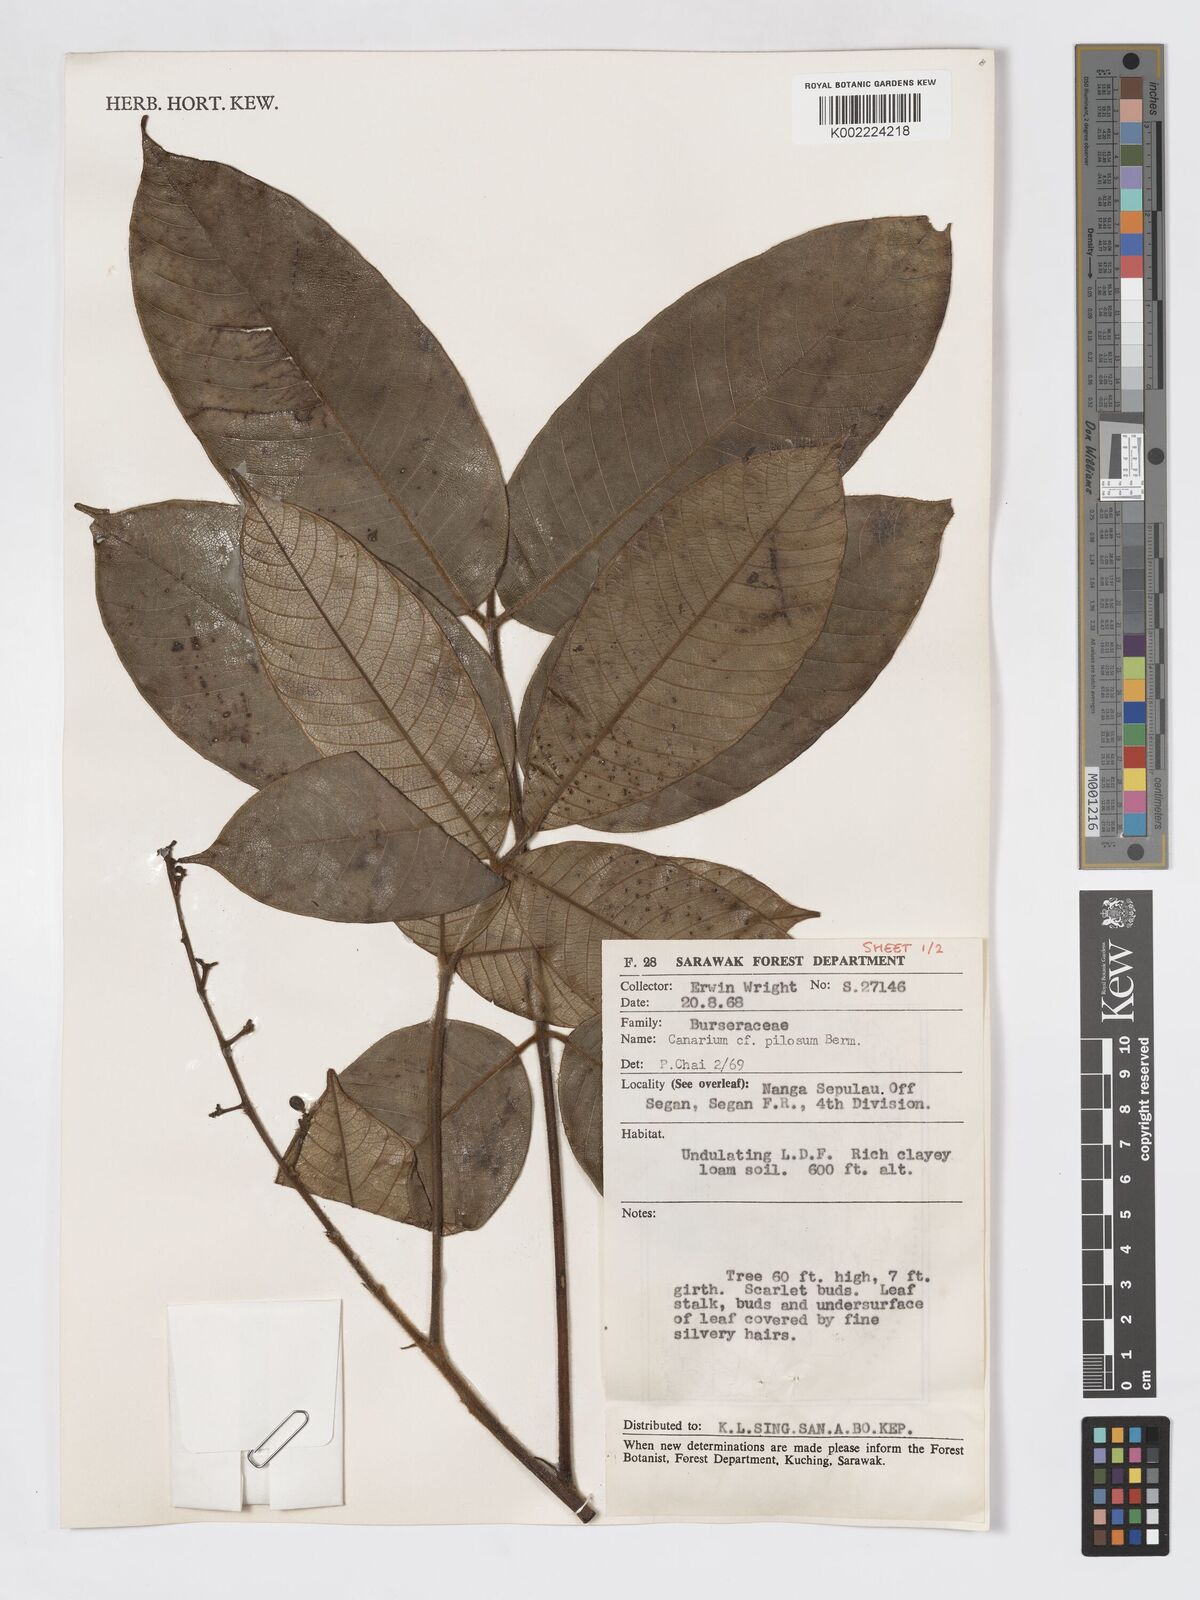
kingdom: Plantae
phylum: Tracheophyta
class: Magnoliopsida
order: Sapindales
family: Burseraceae
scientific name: Burseraceae
